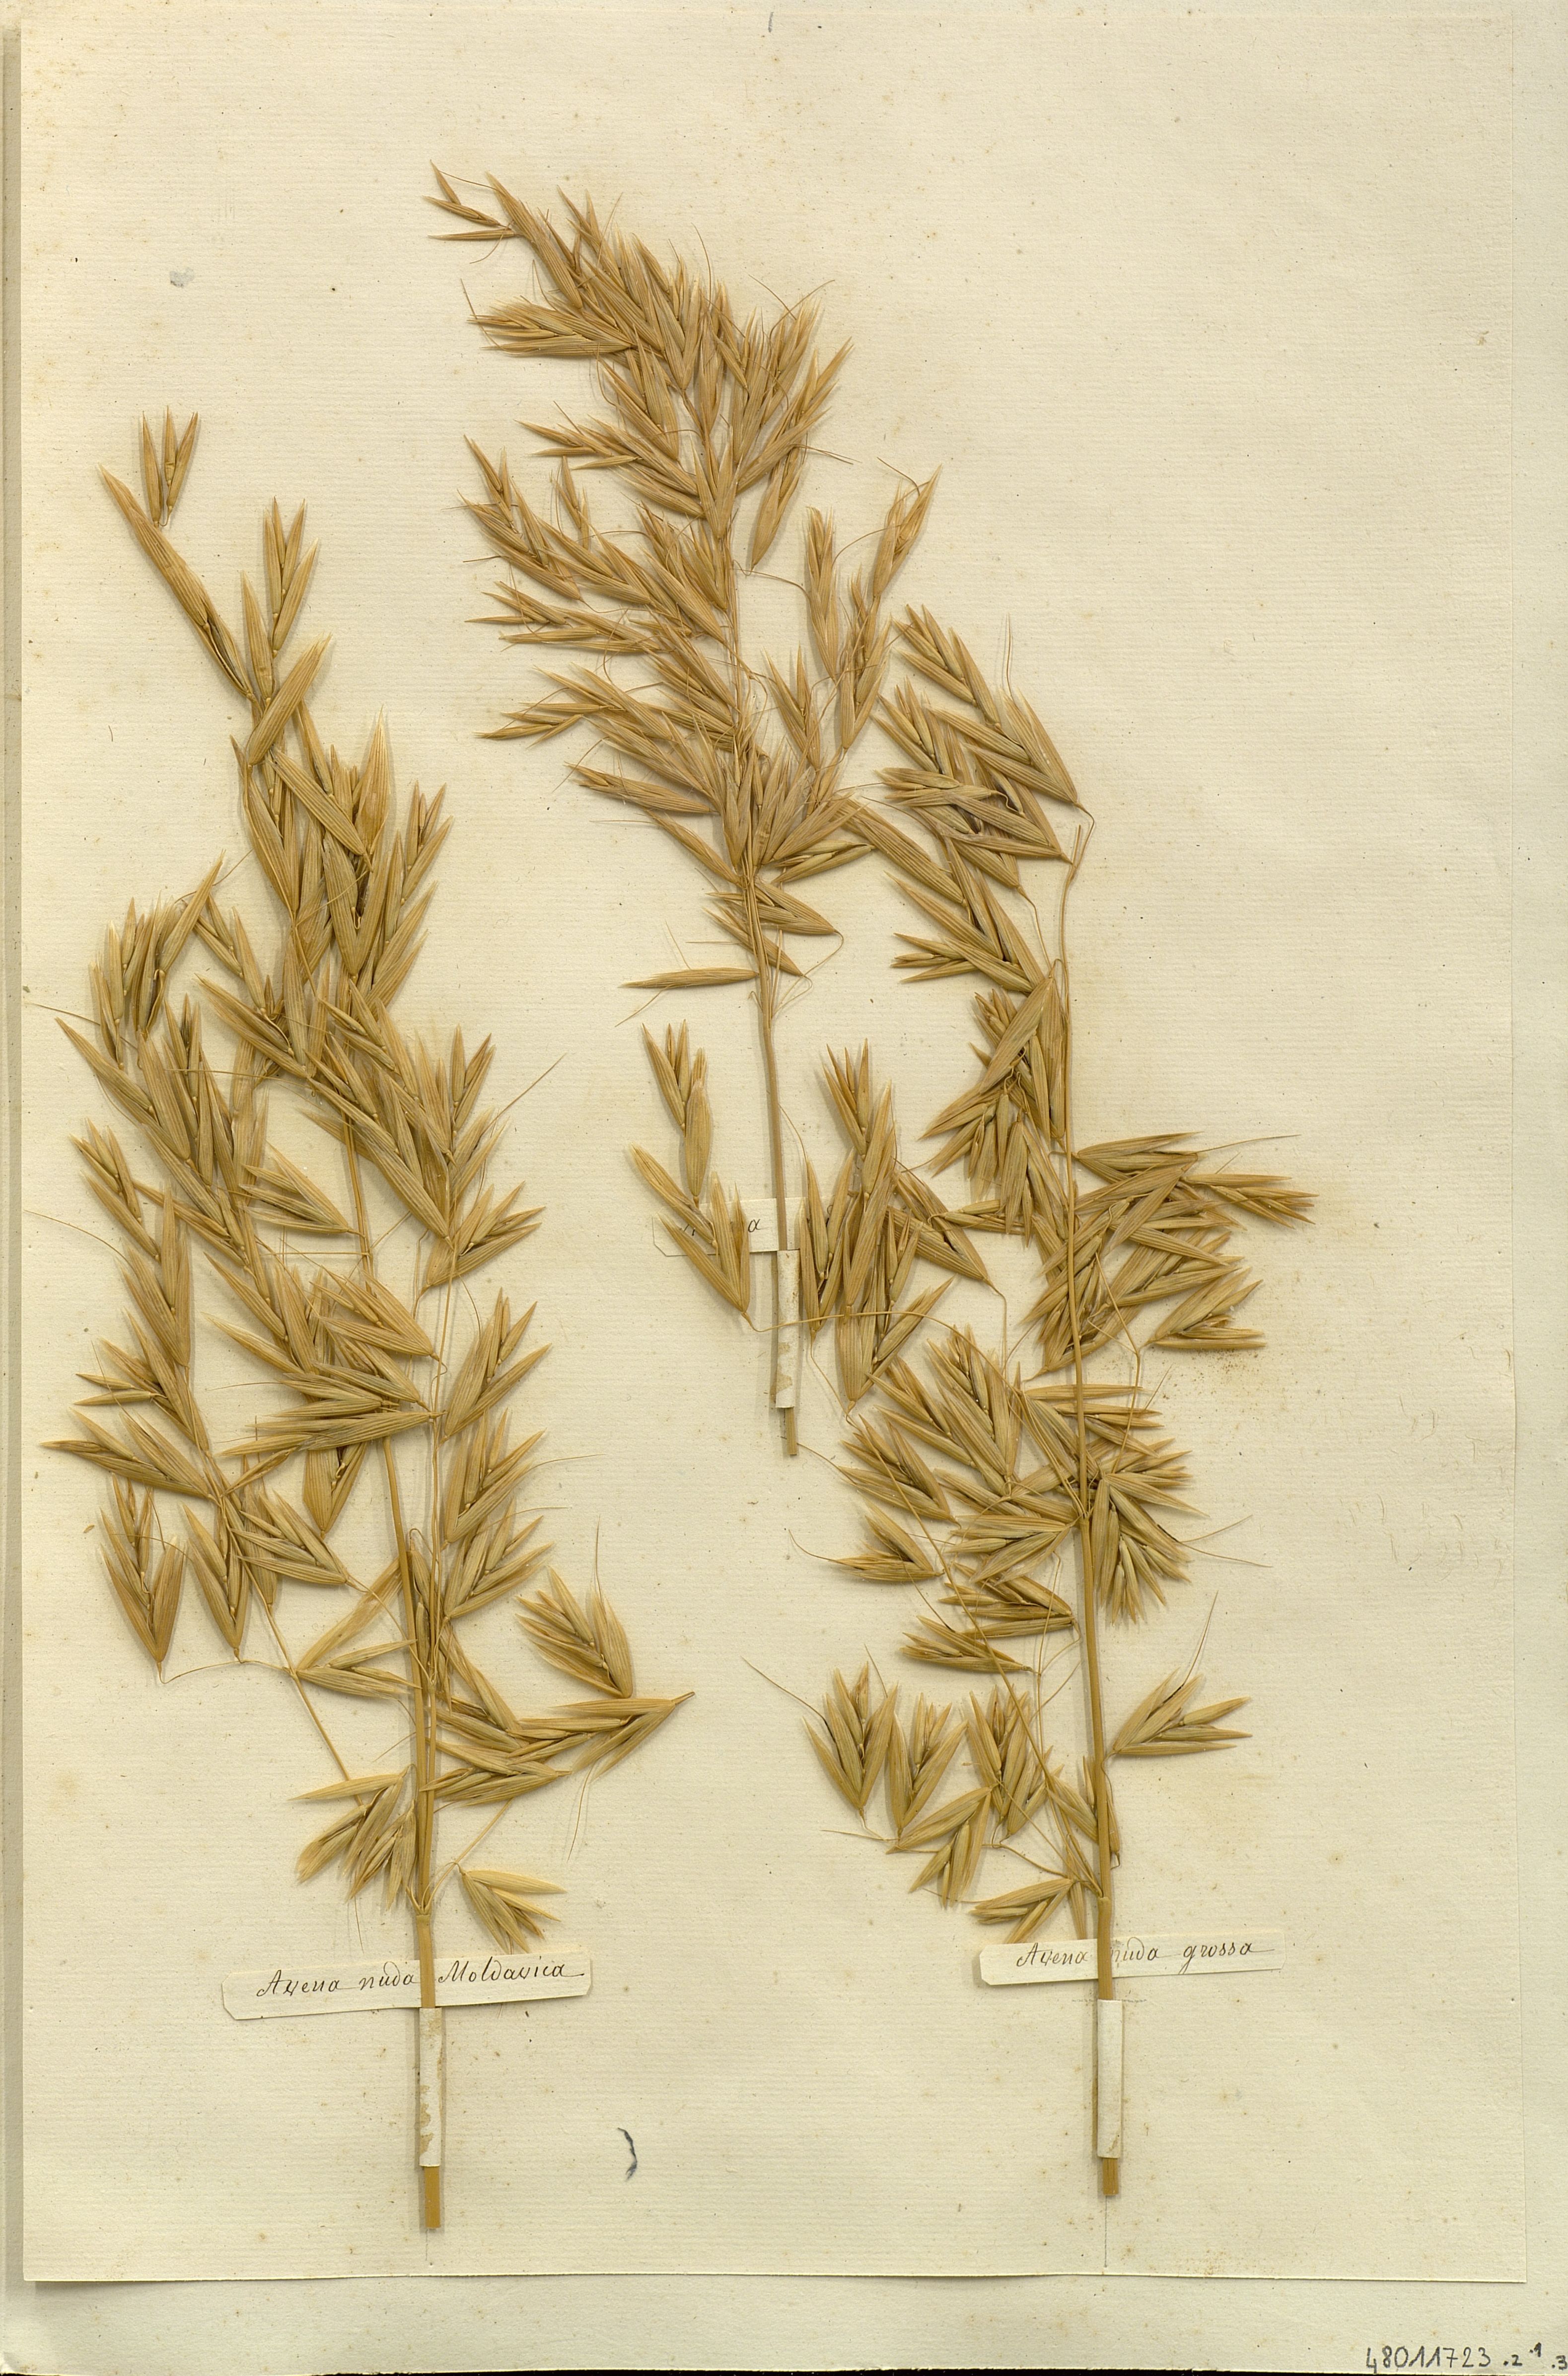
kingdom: Plantae
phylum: Tracheophyta
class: Liliopsida
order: Poales
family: Poaceae
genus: Avena
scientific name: Avena nuda
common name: Naked oat
